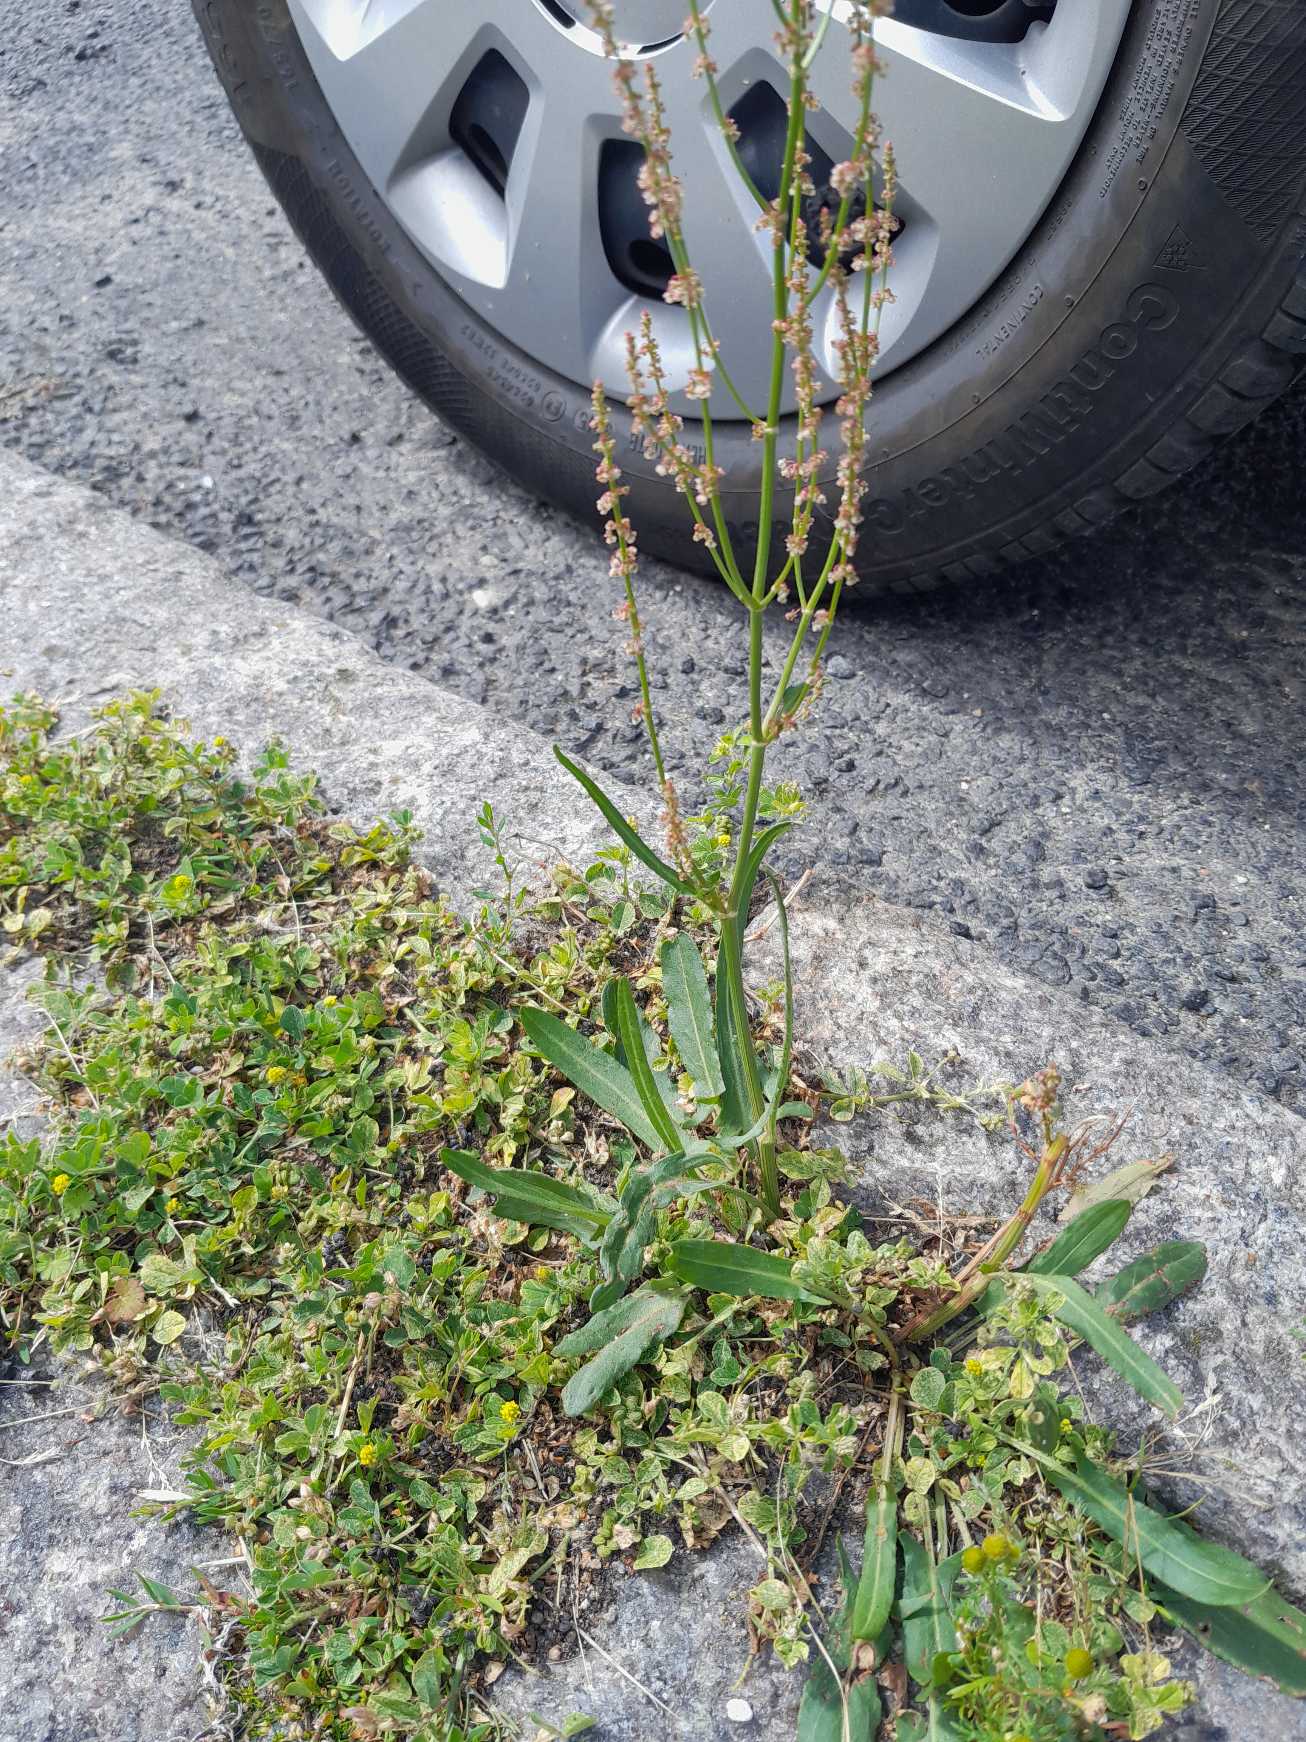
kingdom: Plantae
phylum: Tracheophyta
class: Magnoliopsida
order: Caryophyllales
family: Polygonaceae
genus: Rumex
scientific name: Rumex thyrsiflorus
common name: Dusk-syre
